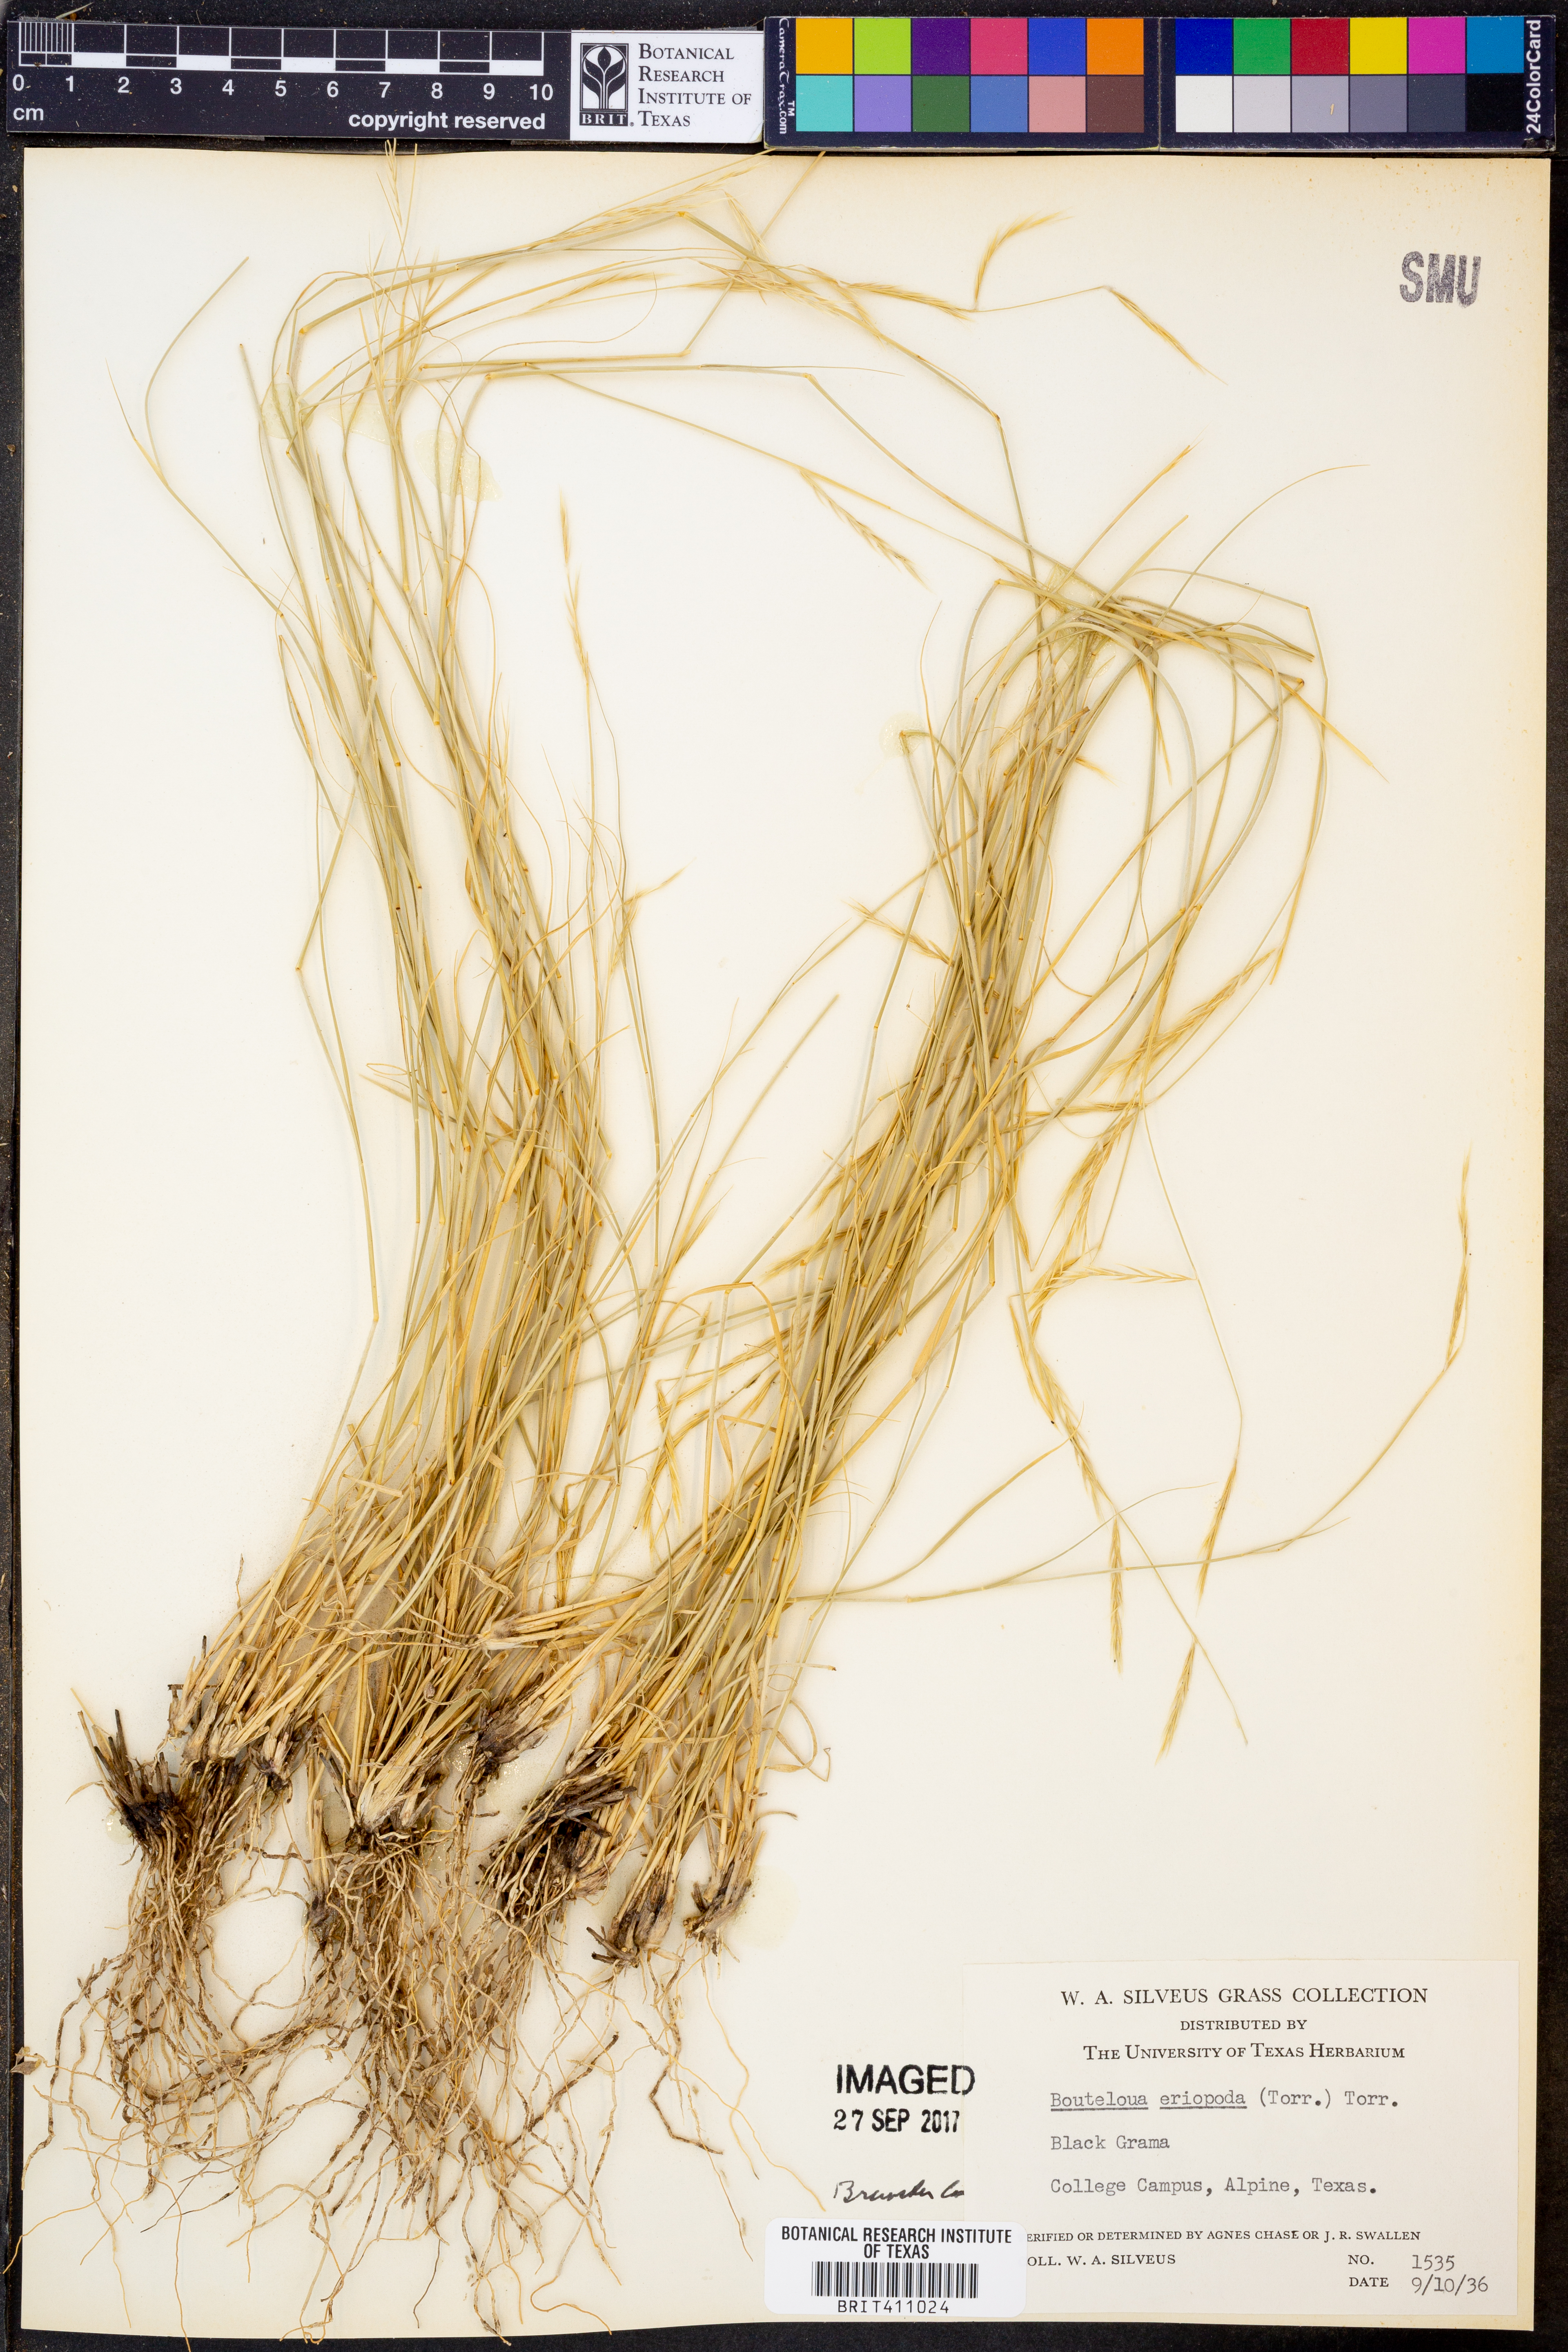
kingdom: Plantae
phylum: Tracheophyta
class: Liliopsida
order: Poales
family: Poaceae
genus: Bouteloua
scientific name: Bouteloua eriopoda
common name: Woolly foot grama
